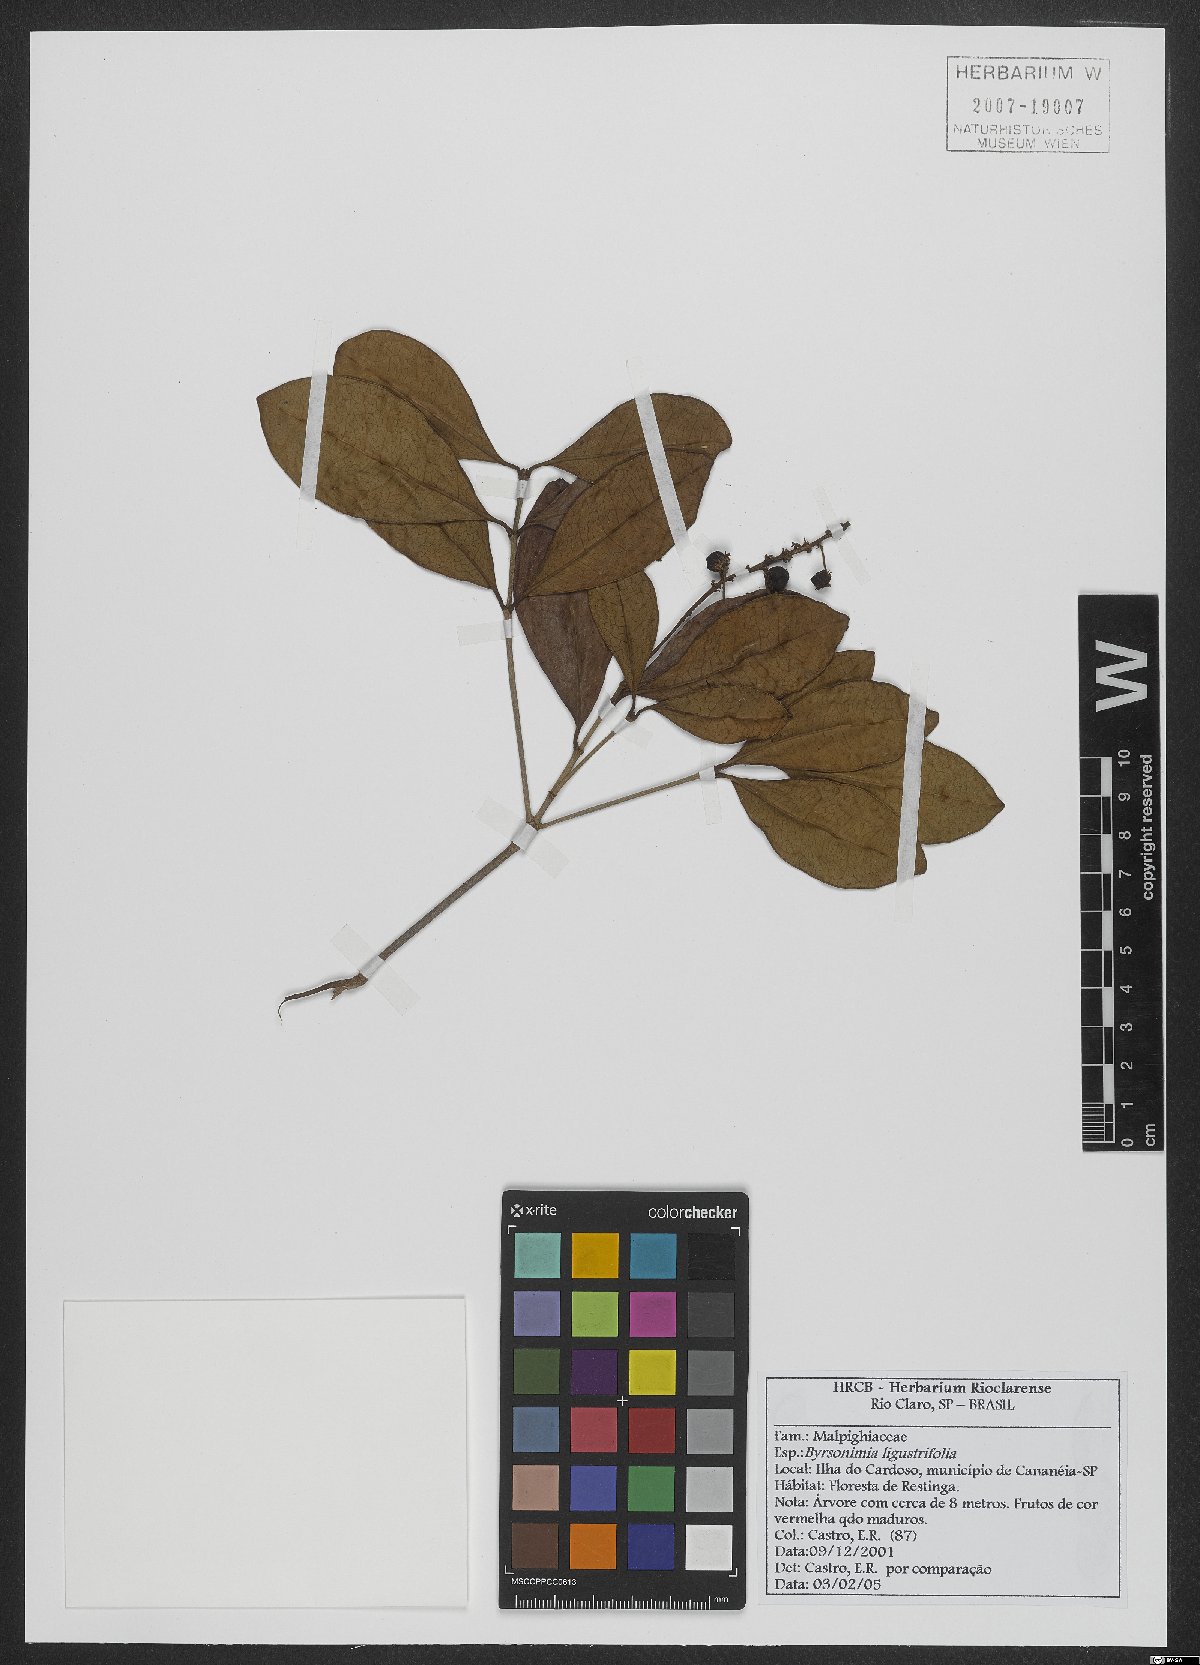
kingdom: Plantae
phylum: Tracheophyta
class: Magnoliopsida
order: Malpighiales
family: Malpighiaceae
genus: Byrsonima
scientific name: Byrsonima ligustrifolia
